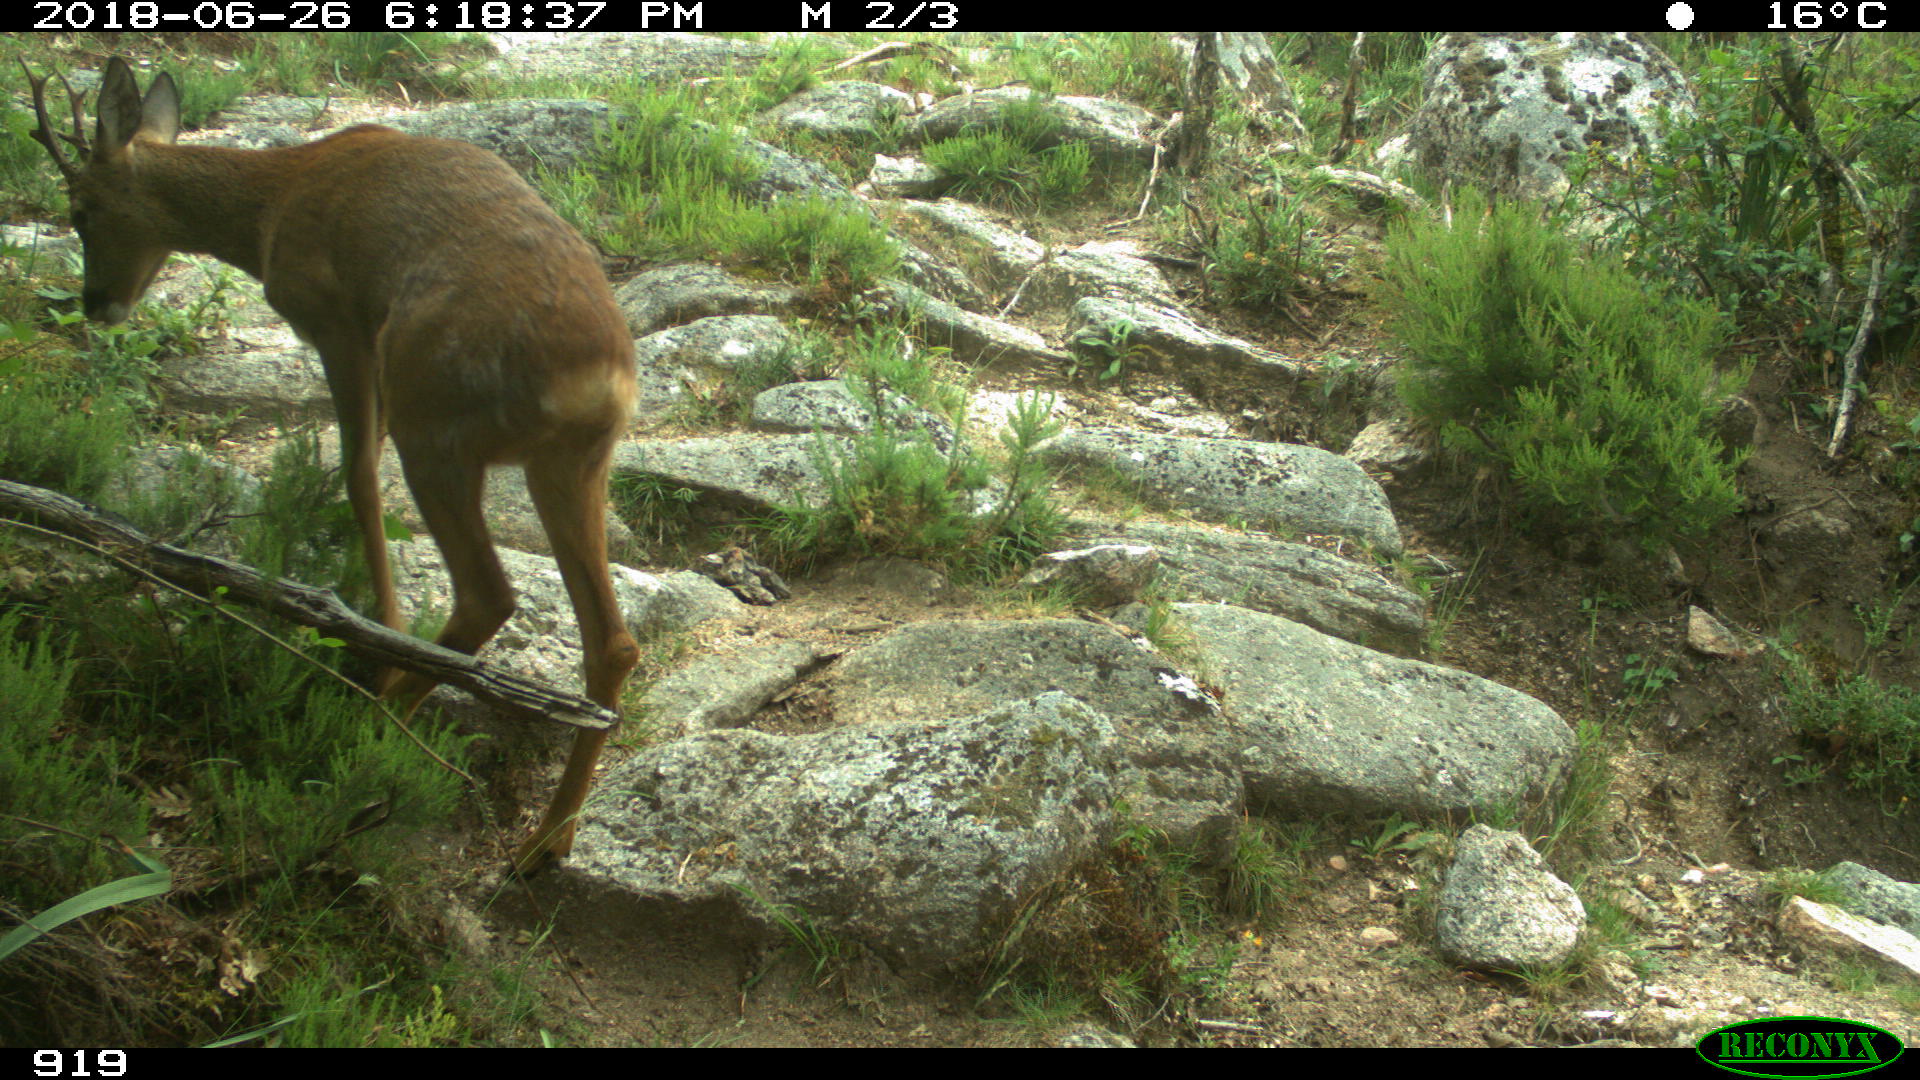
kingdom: Animalia
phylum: Chordata
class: Mammalia
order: Artiodactyla
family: Cervidae
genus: Capreolus
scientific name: Capreolus capreolus
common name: Western roe deer
